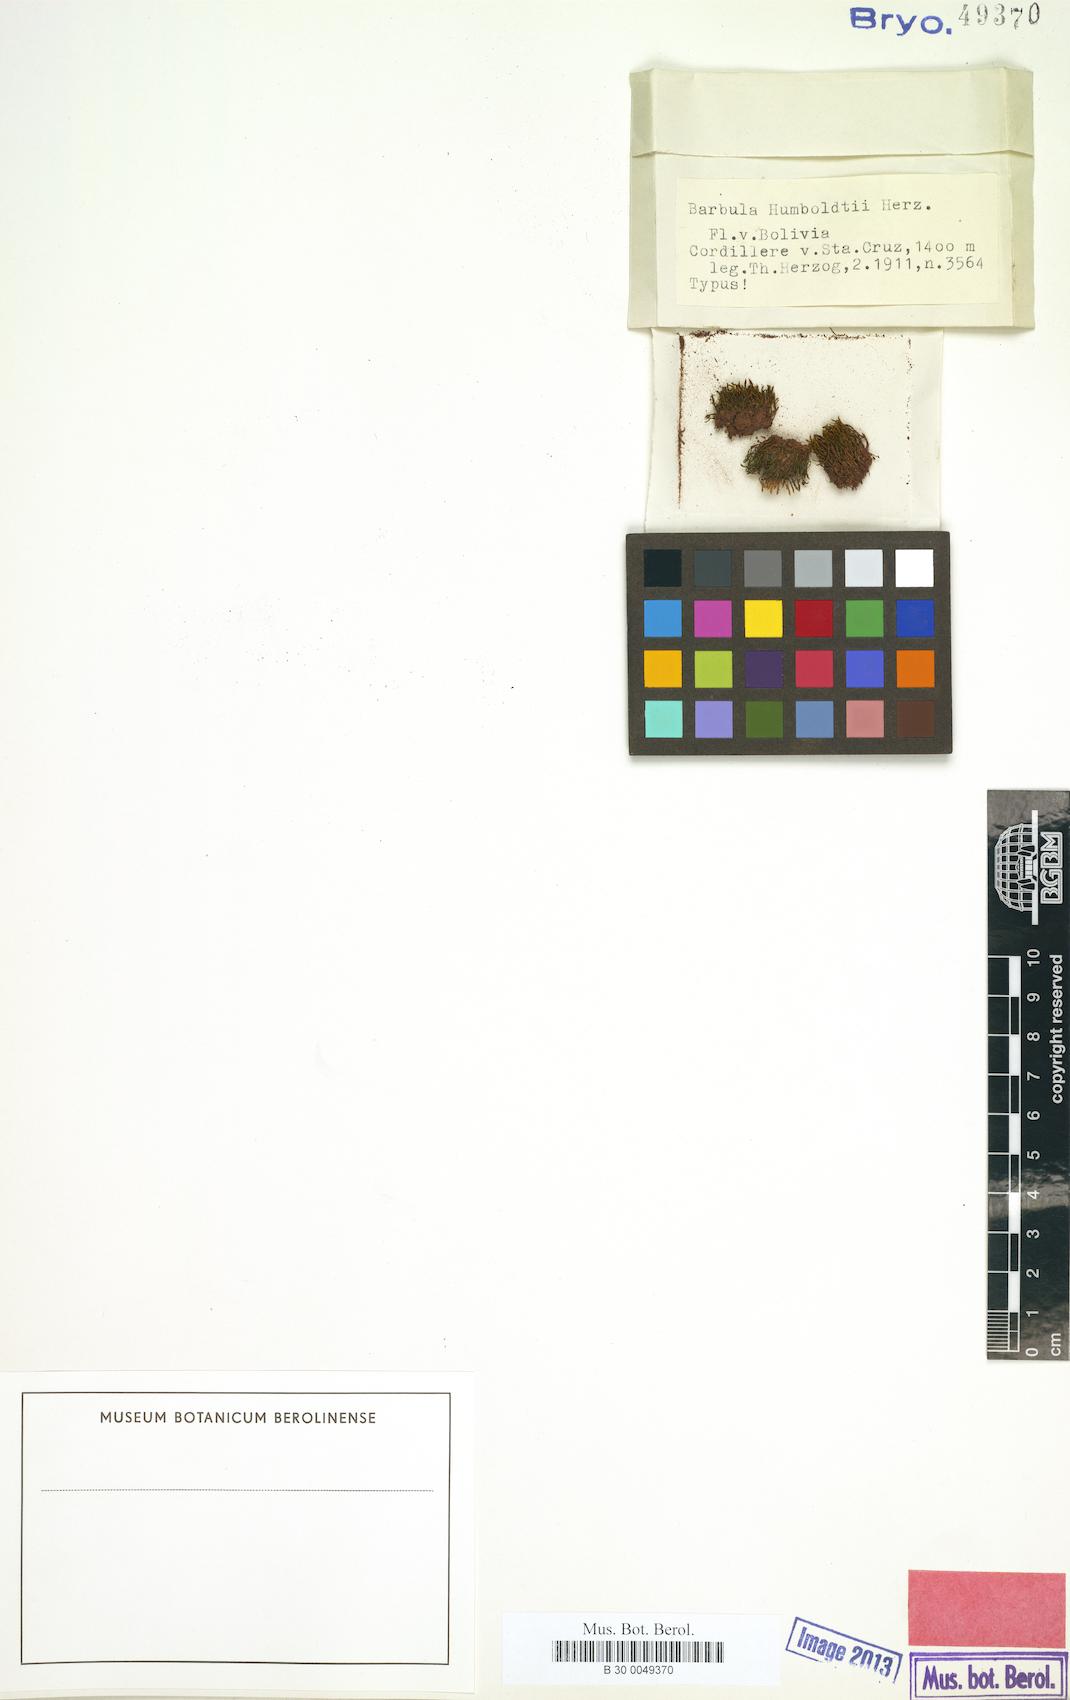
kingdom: Plantae
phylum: Bryophyta
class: Bryopsida
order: Pottiales
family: Pottiaceae
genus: Didymodon
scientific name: Didymodon humboldtii
